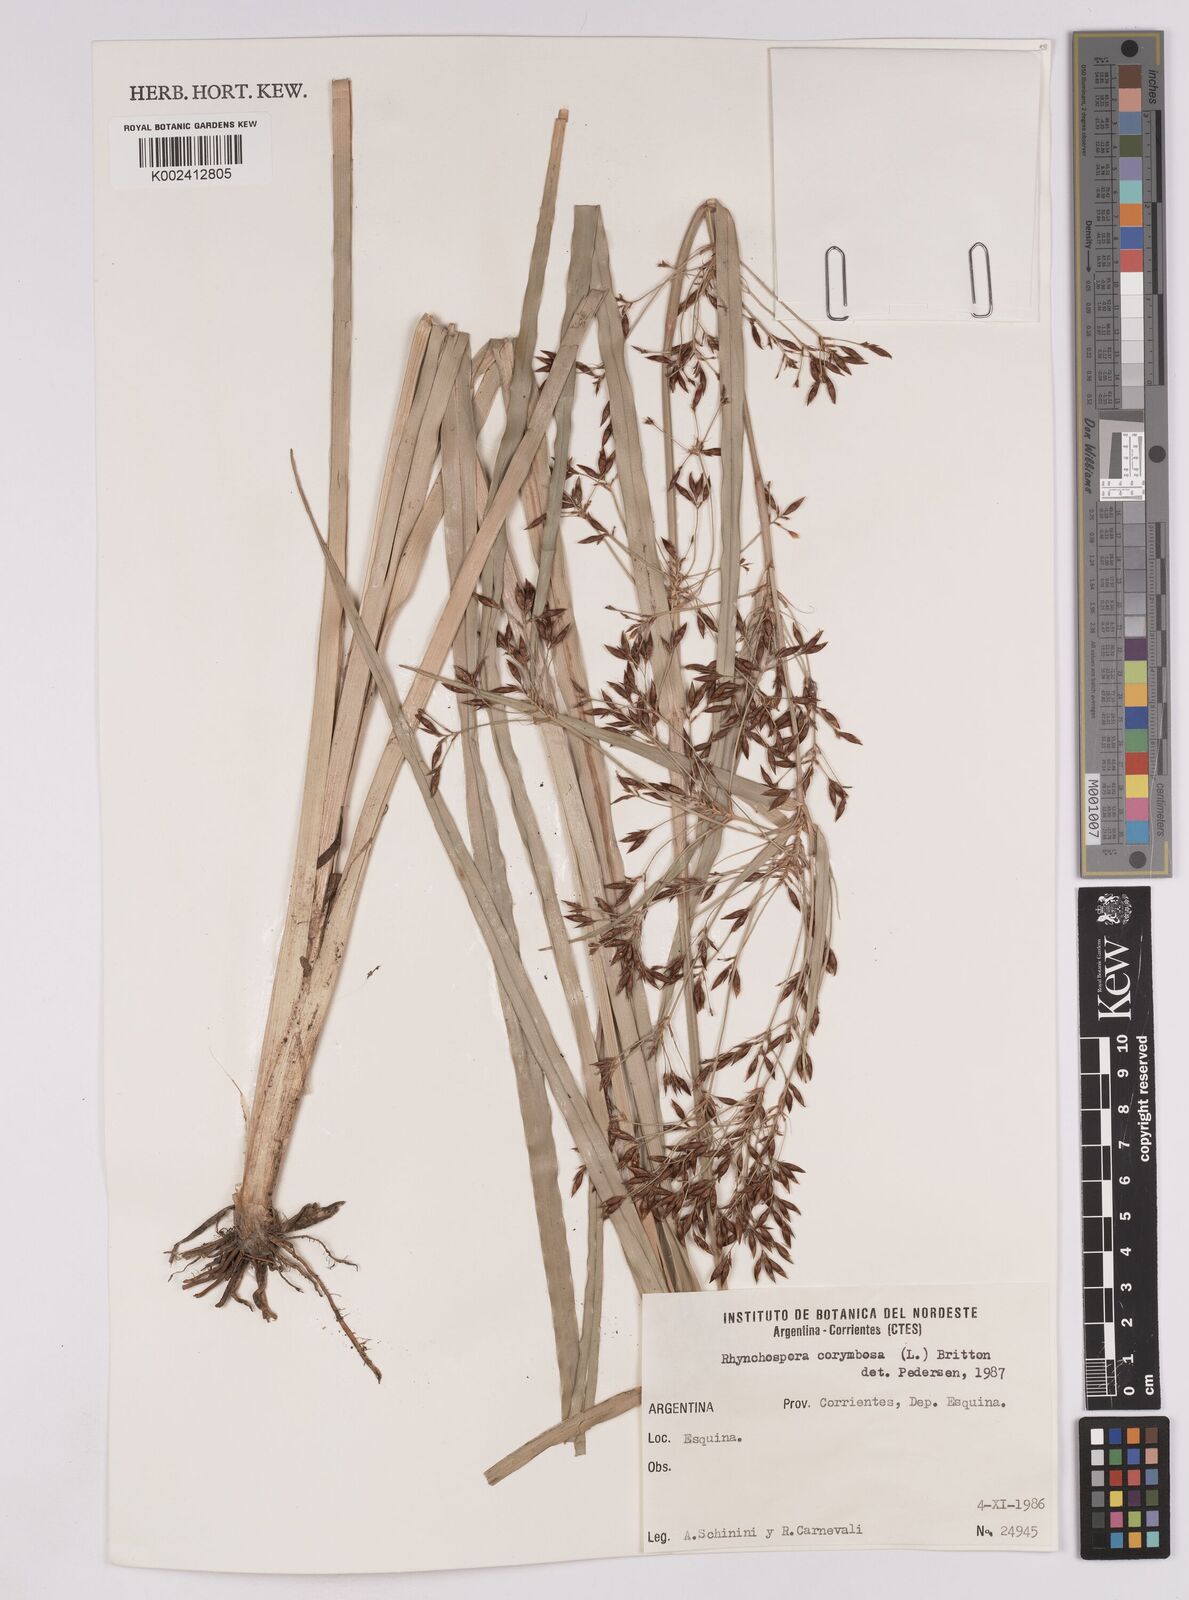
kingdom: Plantae
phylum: Tracheophyta
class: Liliopsida
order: Poales
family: Cyperaceae
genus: Rhynchospora
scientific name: Rhynchospora corymbosa
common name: Golden beak sedge
